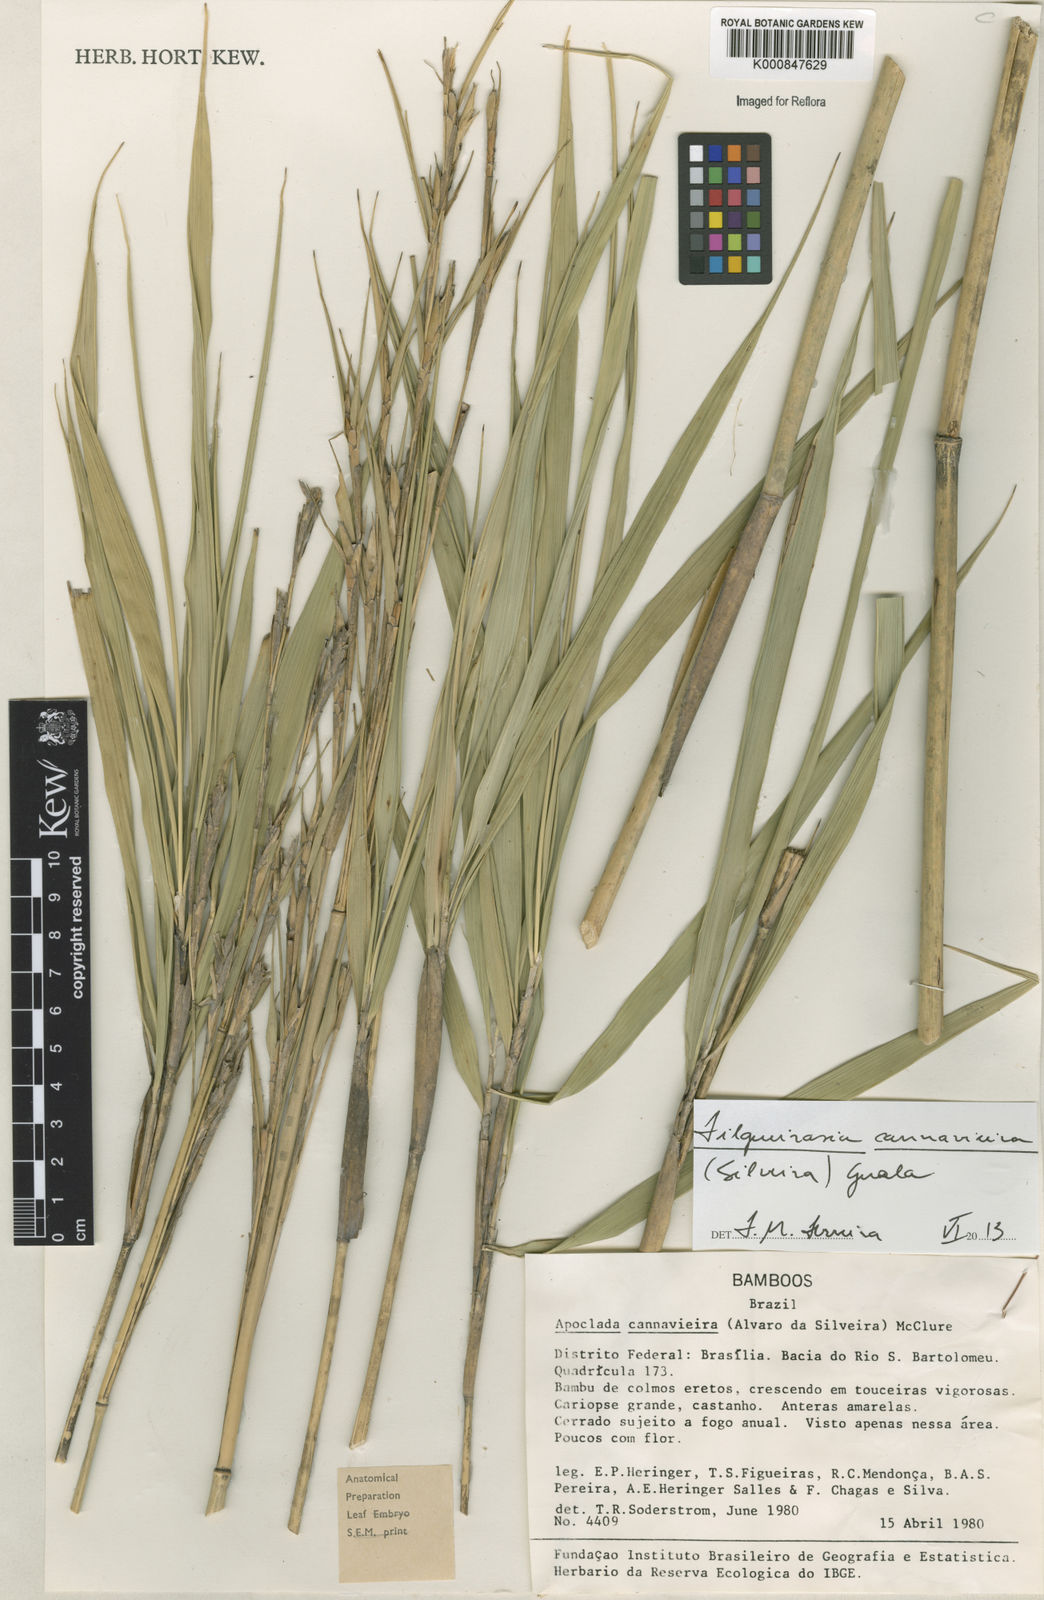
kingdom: Plantae
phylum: Tracheophyta
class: Liliopsida
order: Poales
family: Poaceae
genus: Filgueirasia
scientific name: Filgueirasia cannavieira
